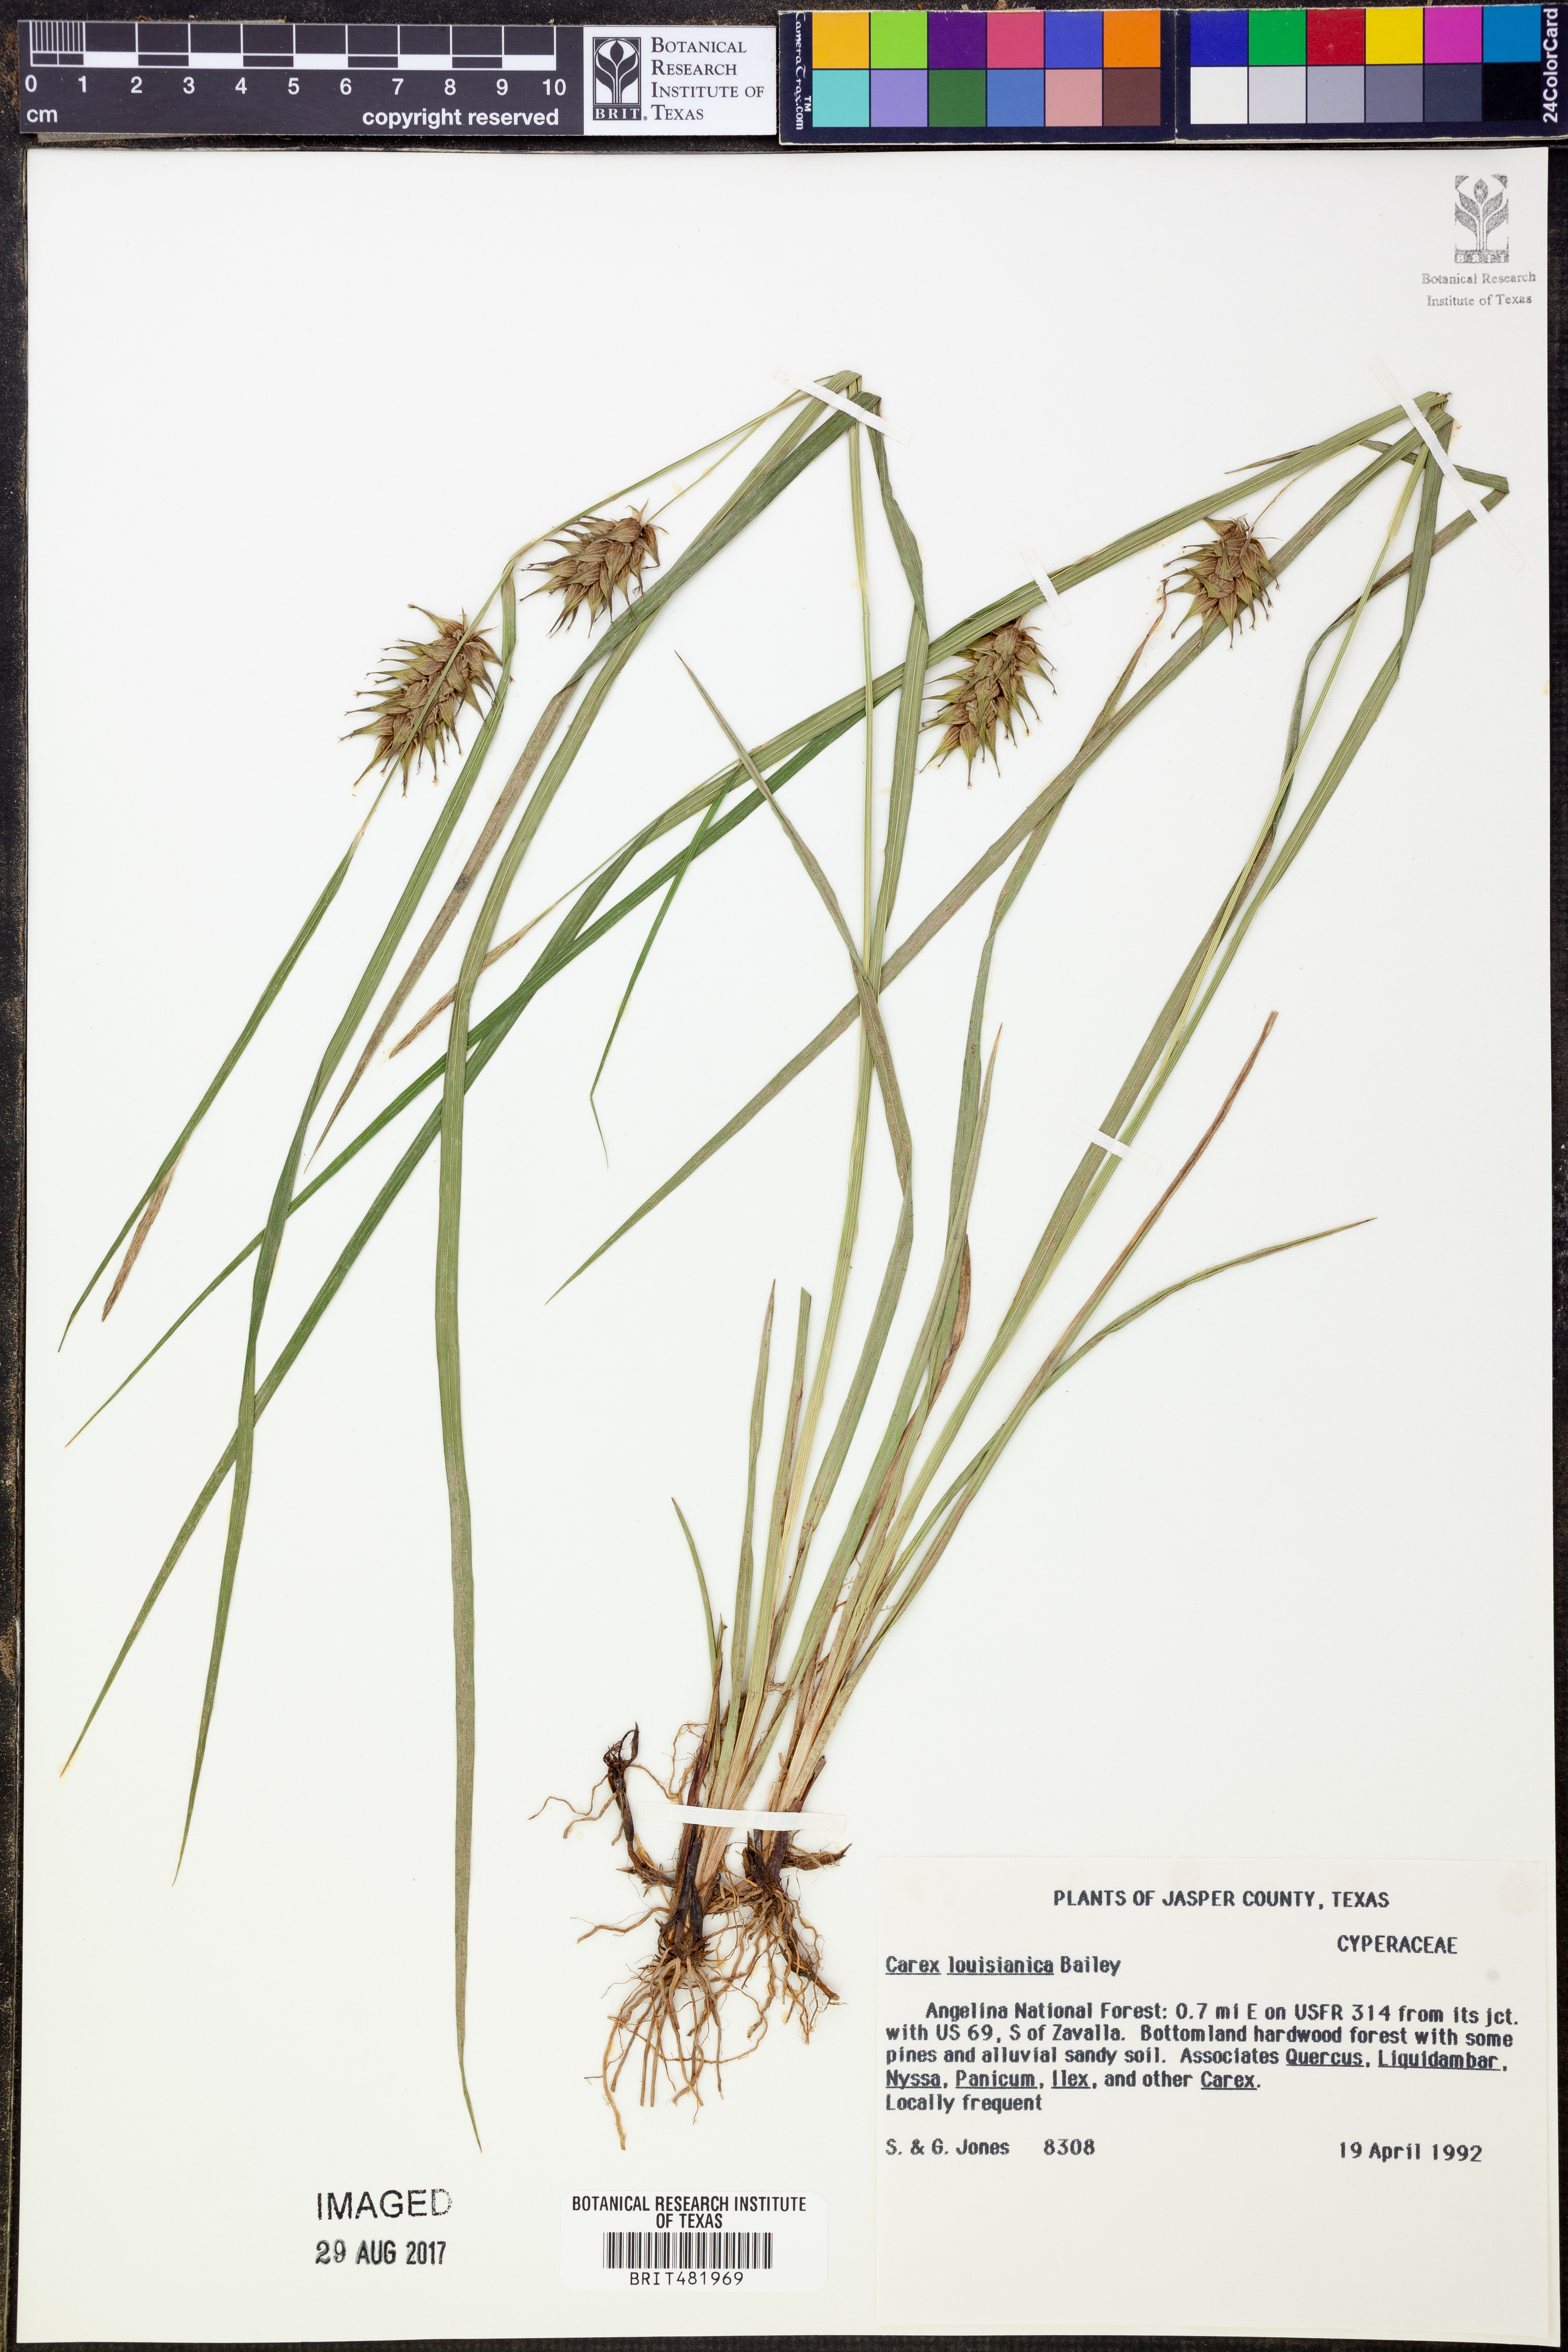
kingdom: Plantae
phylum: Tracheophyta
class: Liliopsida
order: Poales
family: Cyperaceae
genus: Carex
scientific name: Carex louisianica
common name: Louisiana sedge
